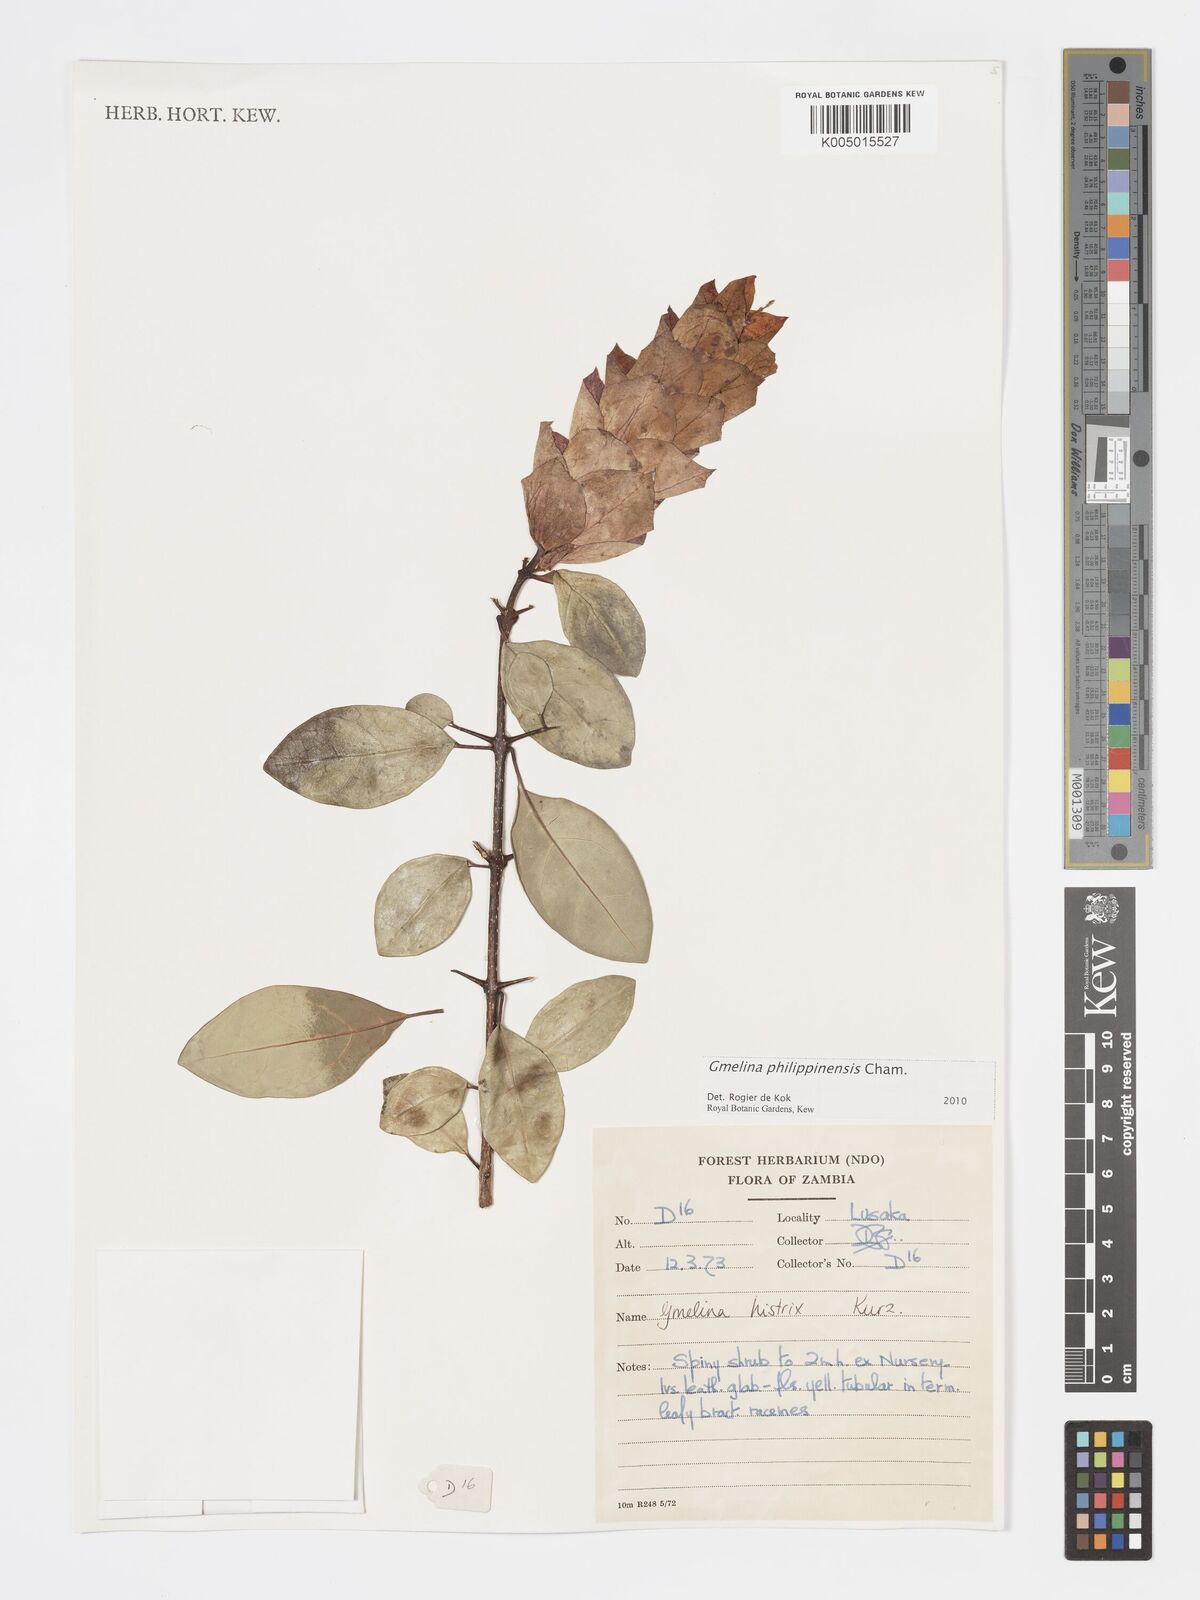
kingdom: Plantae
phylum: Tracheophyta
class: Magnoliopsida
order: Lamiales
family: Lamiaceae
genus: Gmelina
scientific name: Gmelina philippensis
